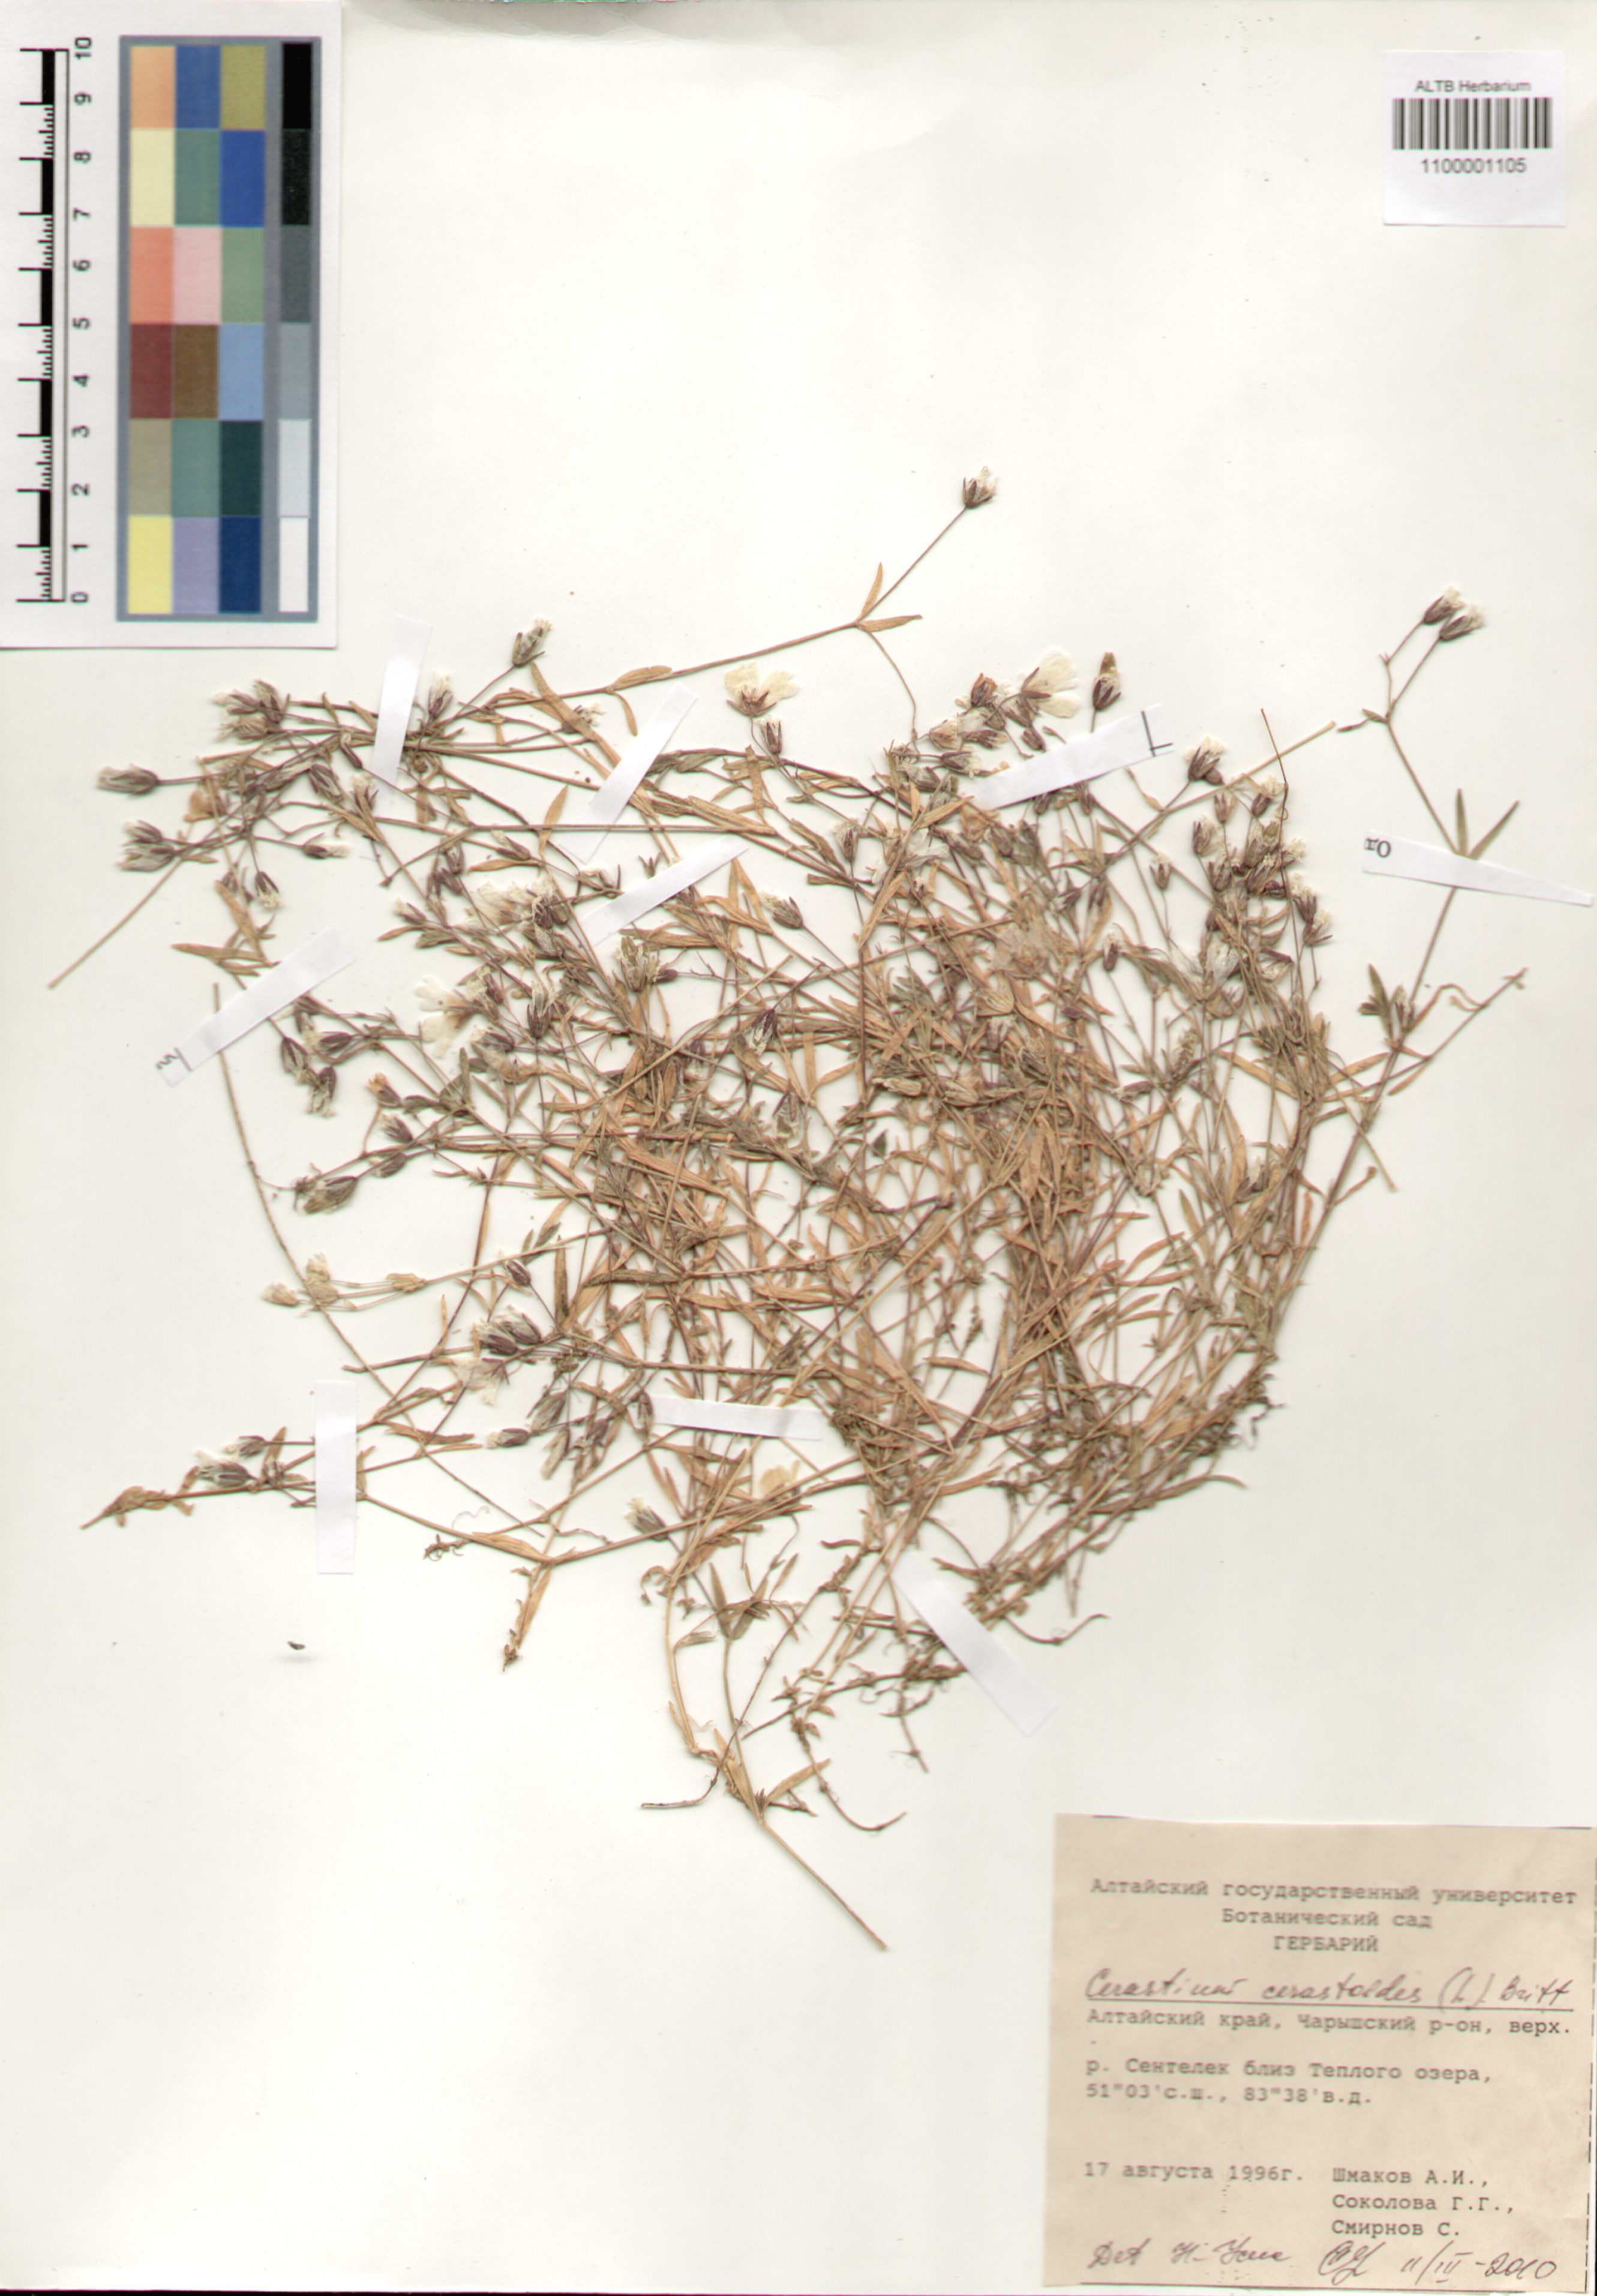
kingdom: Plantae
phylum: Tracheophyta
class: Magnoliopsida
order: Caryophyllales
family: Caryophyllaceae
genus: Dichodon
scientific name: Dichodon cerastoides
